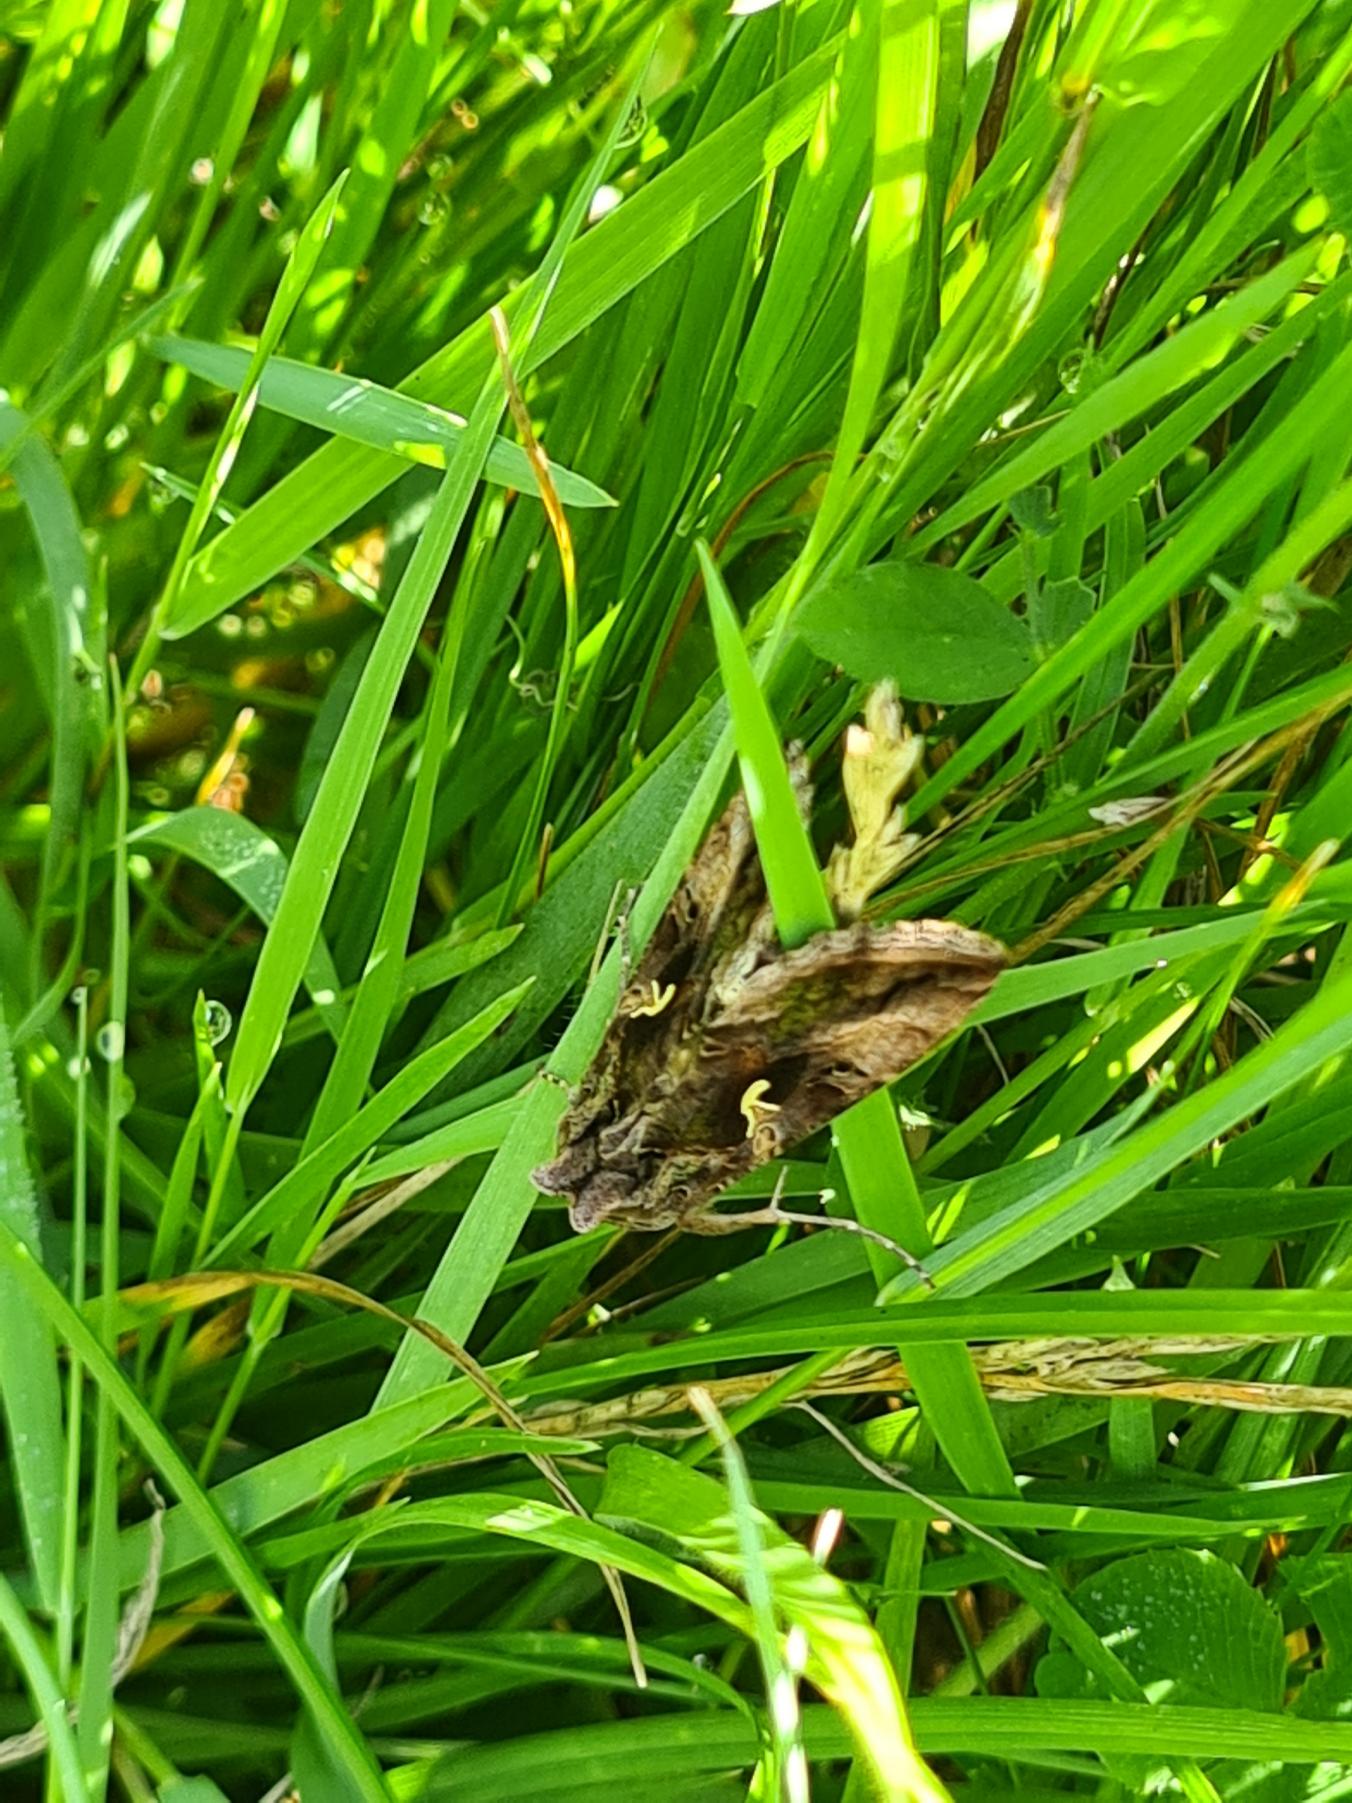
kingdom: Animalia
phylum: Arthropoda
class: Insecta
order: Lepidoptera
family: Noctuidae
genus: Autographa
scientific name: Autographa gamma
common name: Gammaugle
